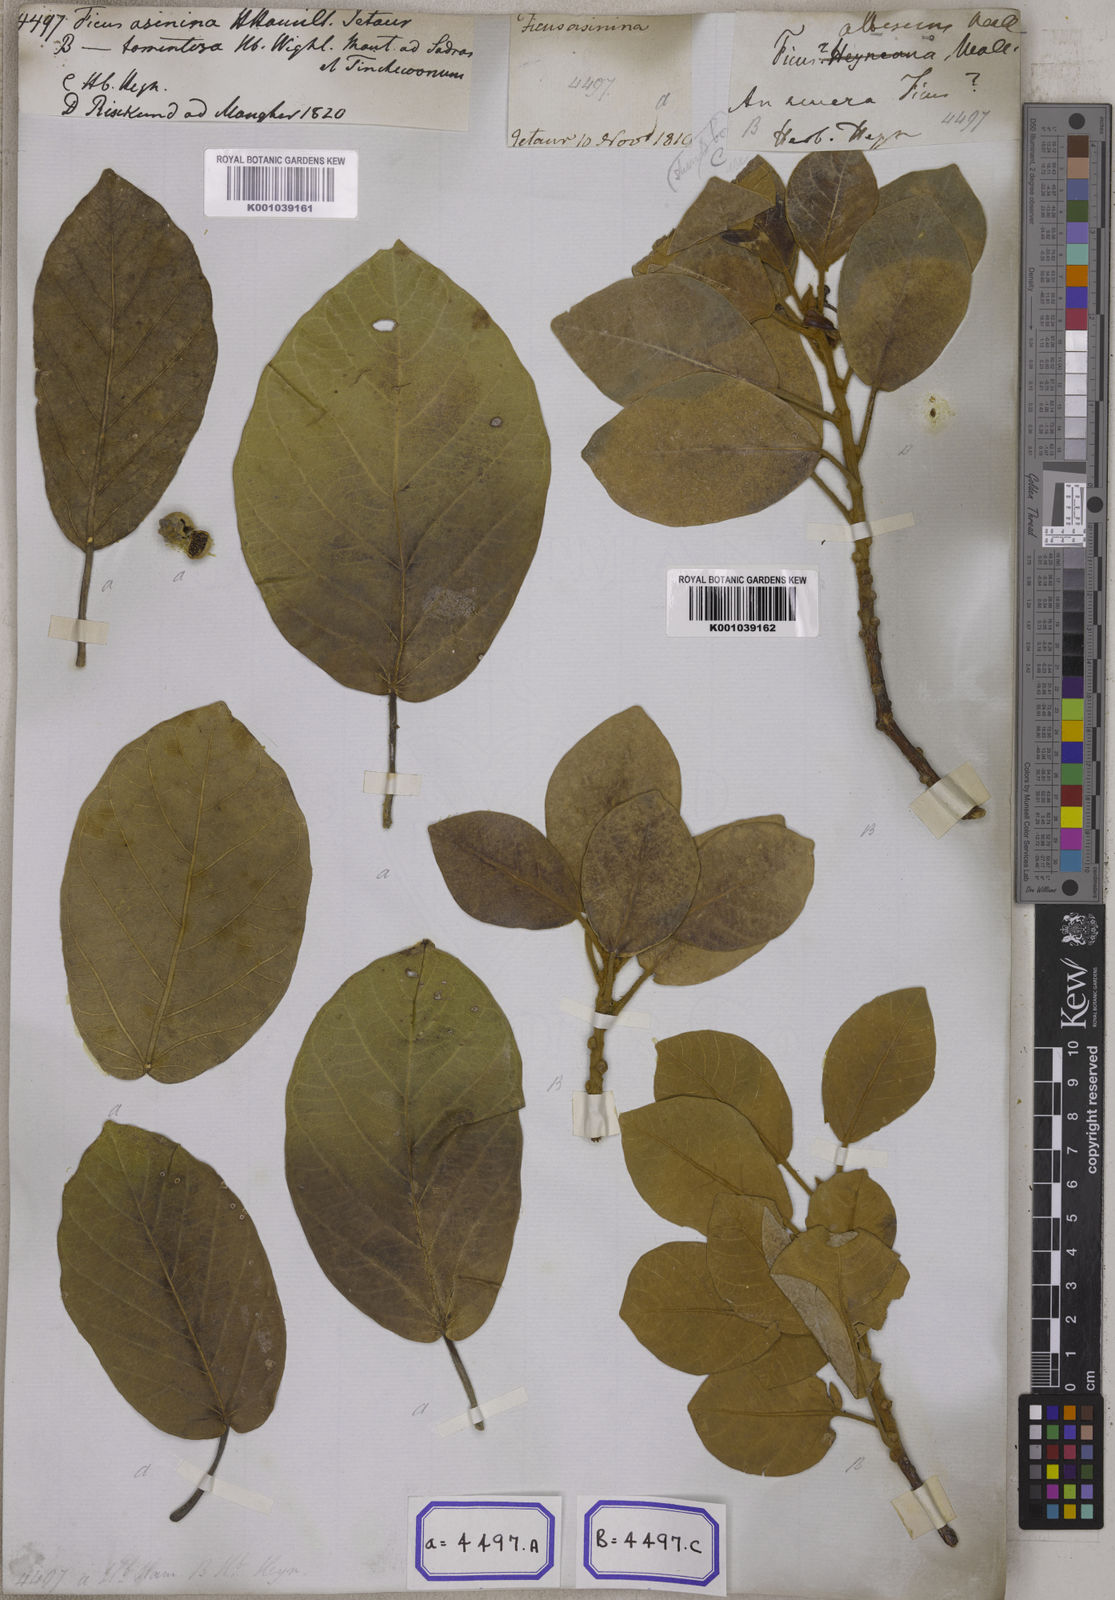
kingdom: Plantae
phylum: Tracheophyta
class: Magnoliopsida
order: Rosales
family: Moraceae
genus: Ficus
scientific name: Ficus mollis
